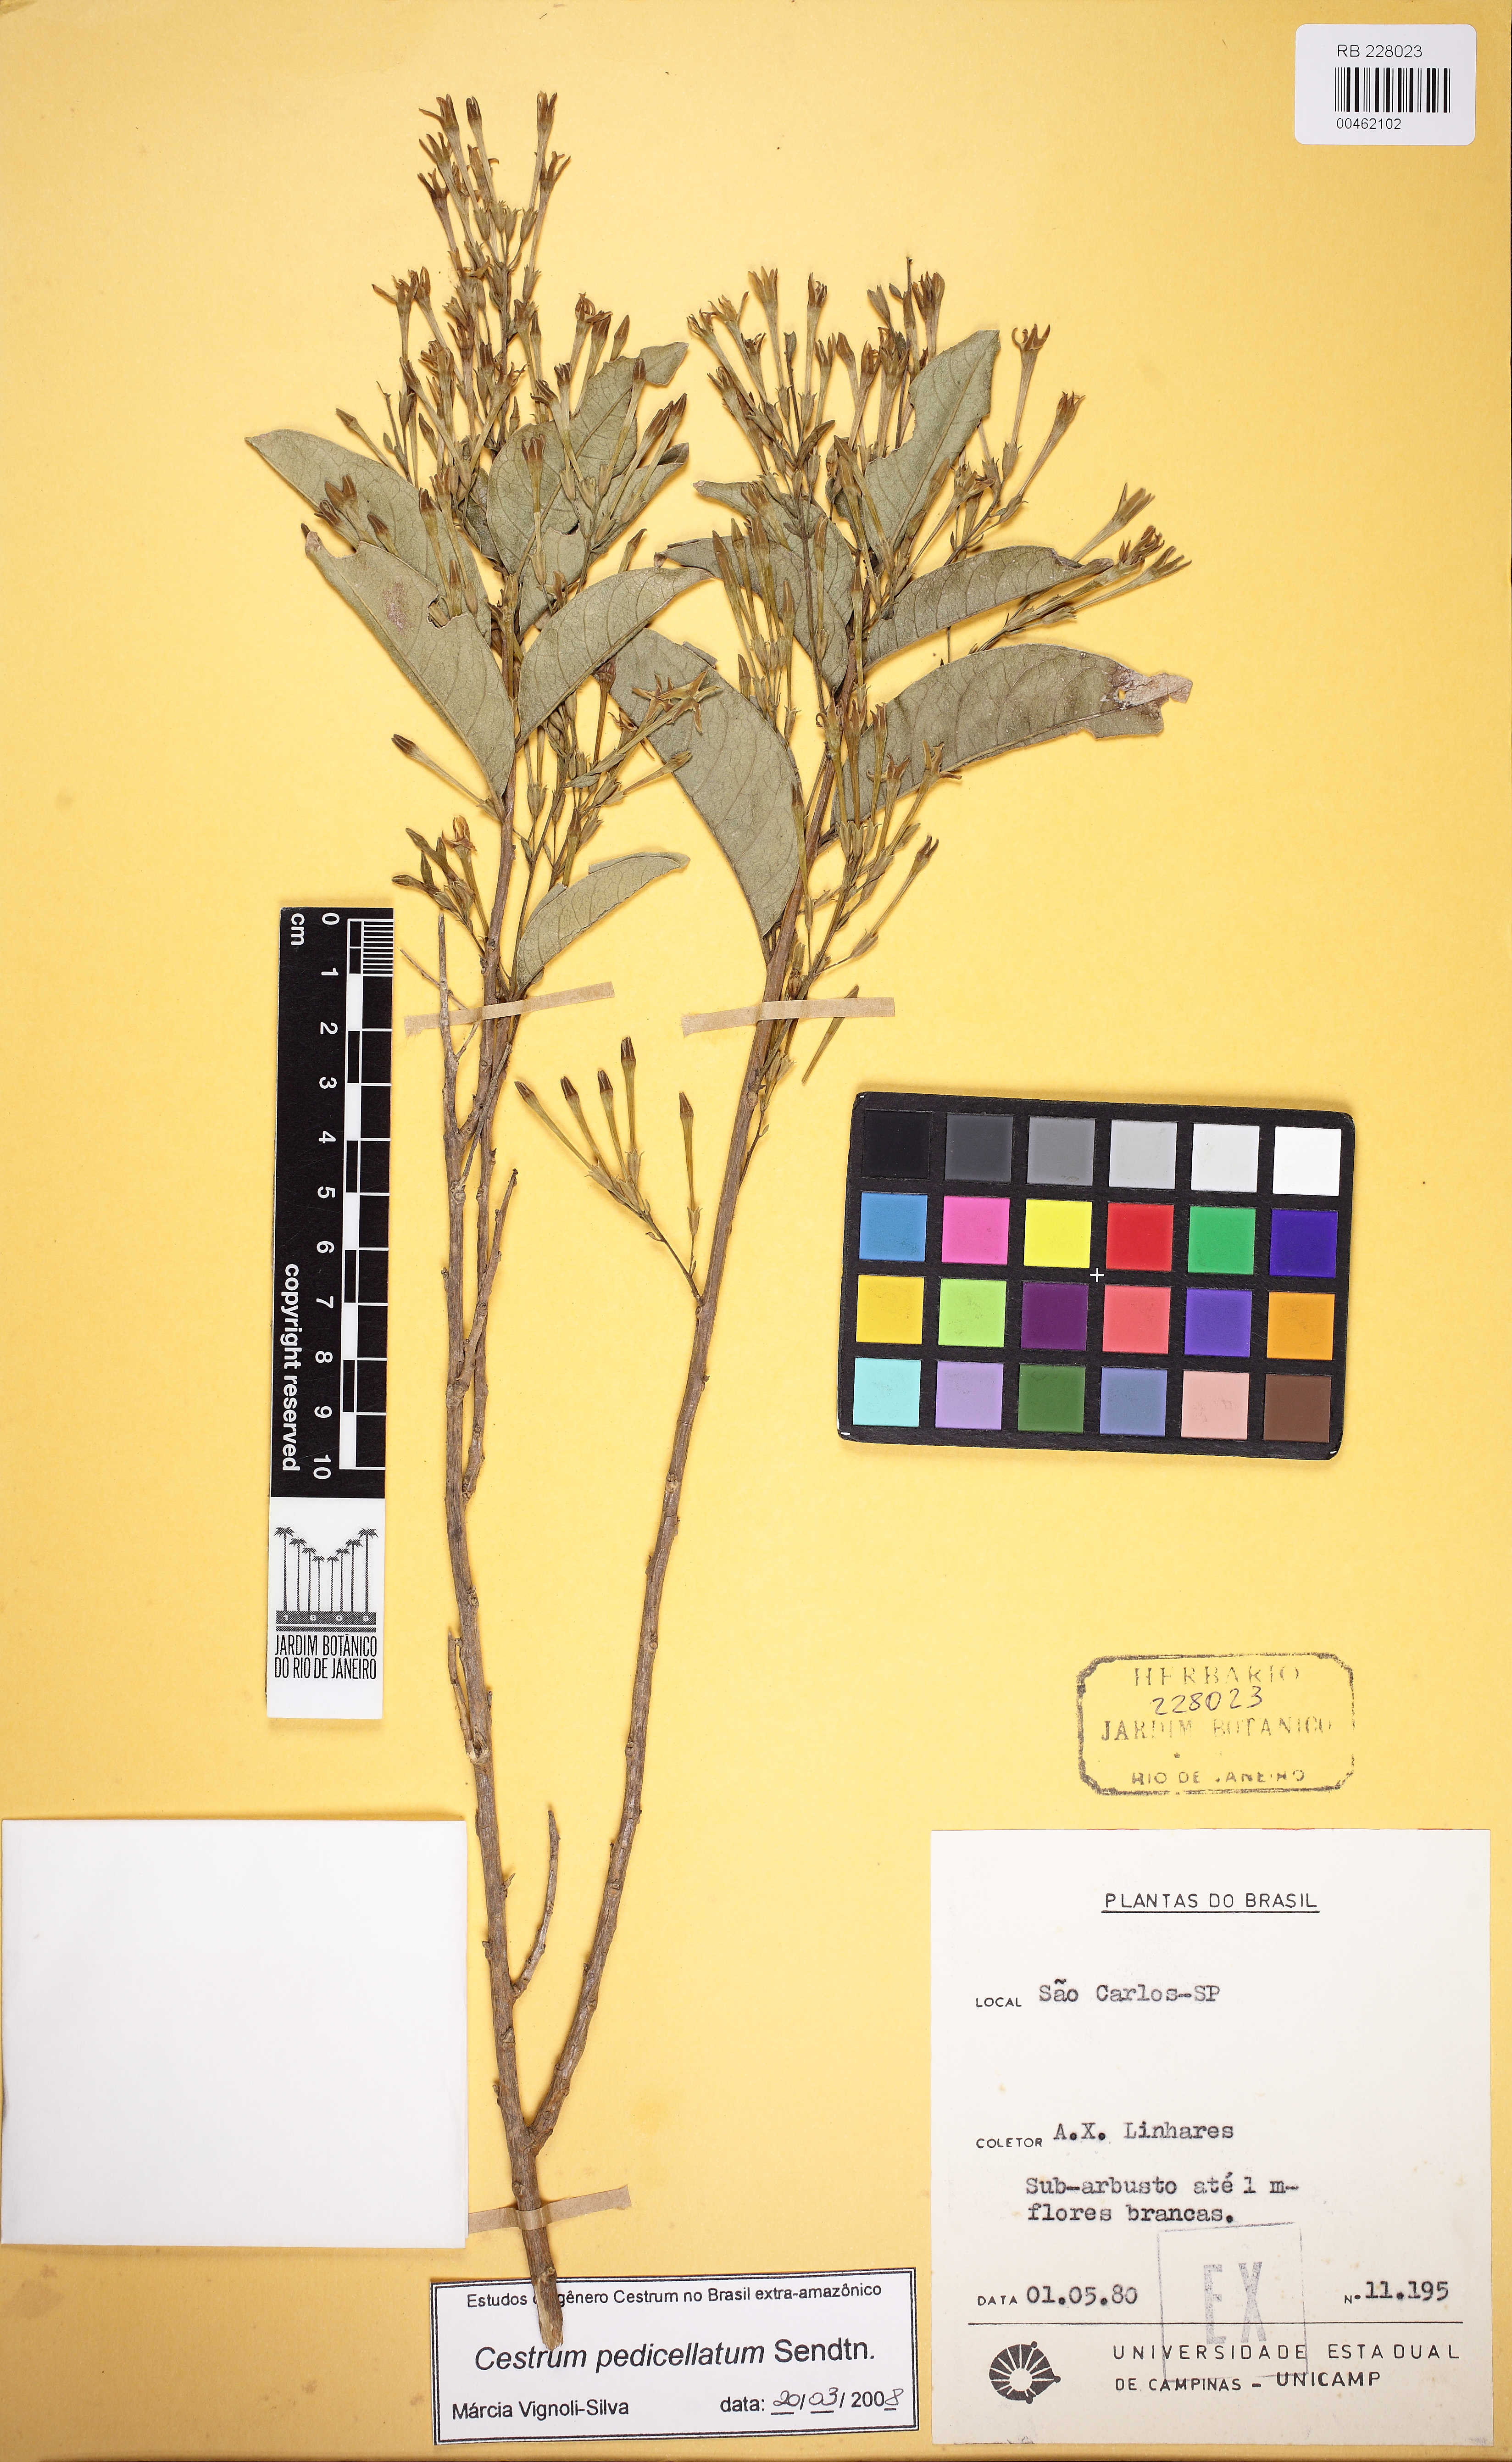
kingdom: Plantae
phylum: Tracheophyta
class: Magnoliopsida
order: Solanales
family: Solanaceae
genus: Cestrum
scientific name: Cestrum pedicellatum
